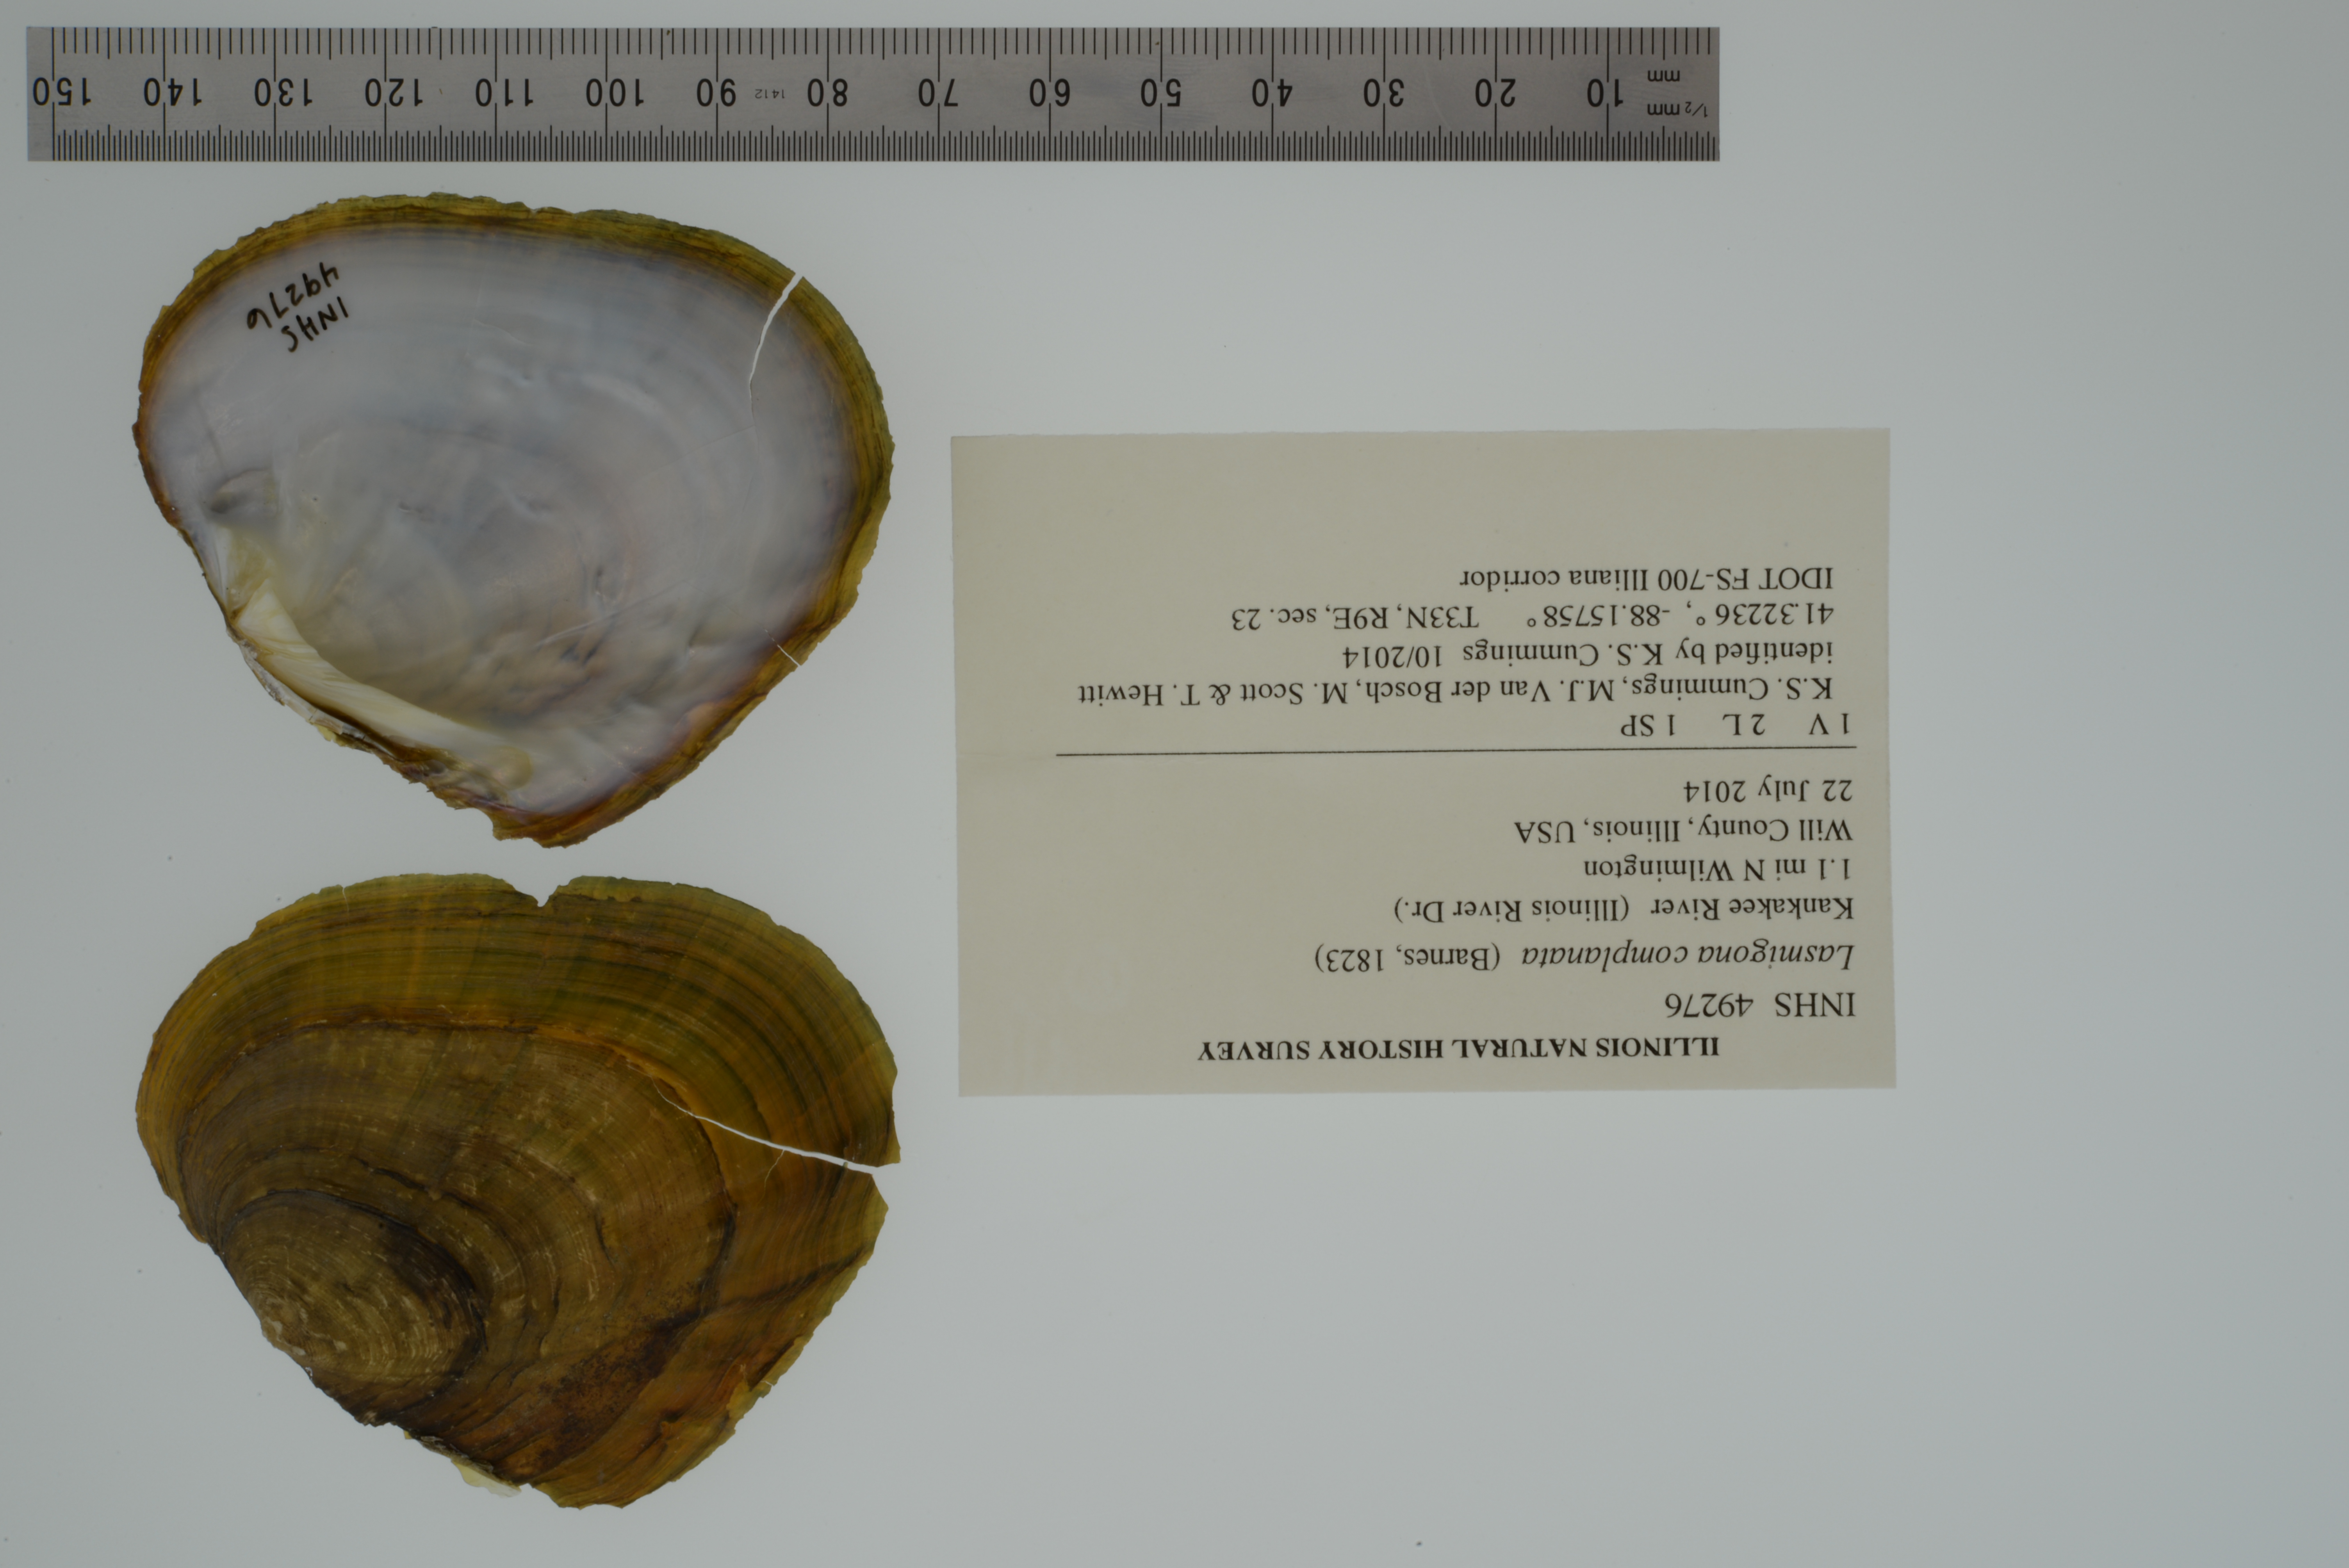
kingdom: Animalia
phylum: Mollusca
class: Bivalvia
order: Unionida
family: Unionidae
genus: Lasmigona
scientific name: Lasmigona complanata
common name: White heelsplitter
